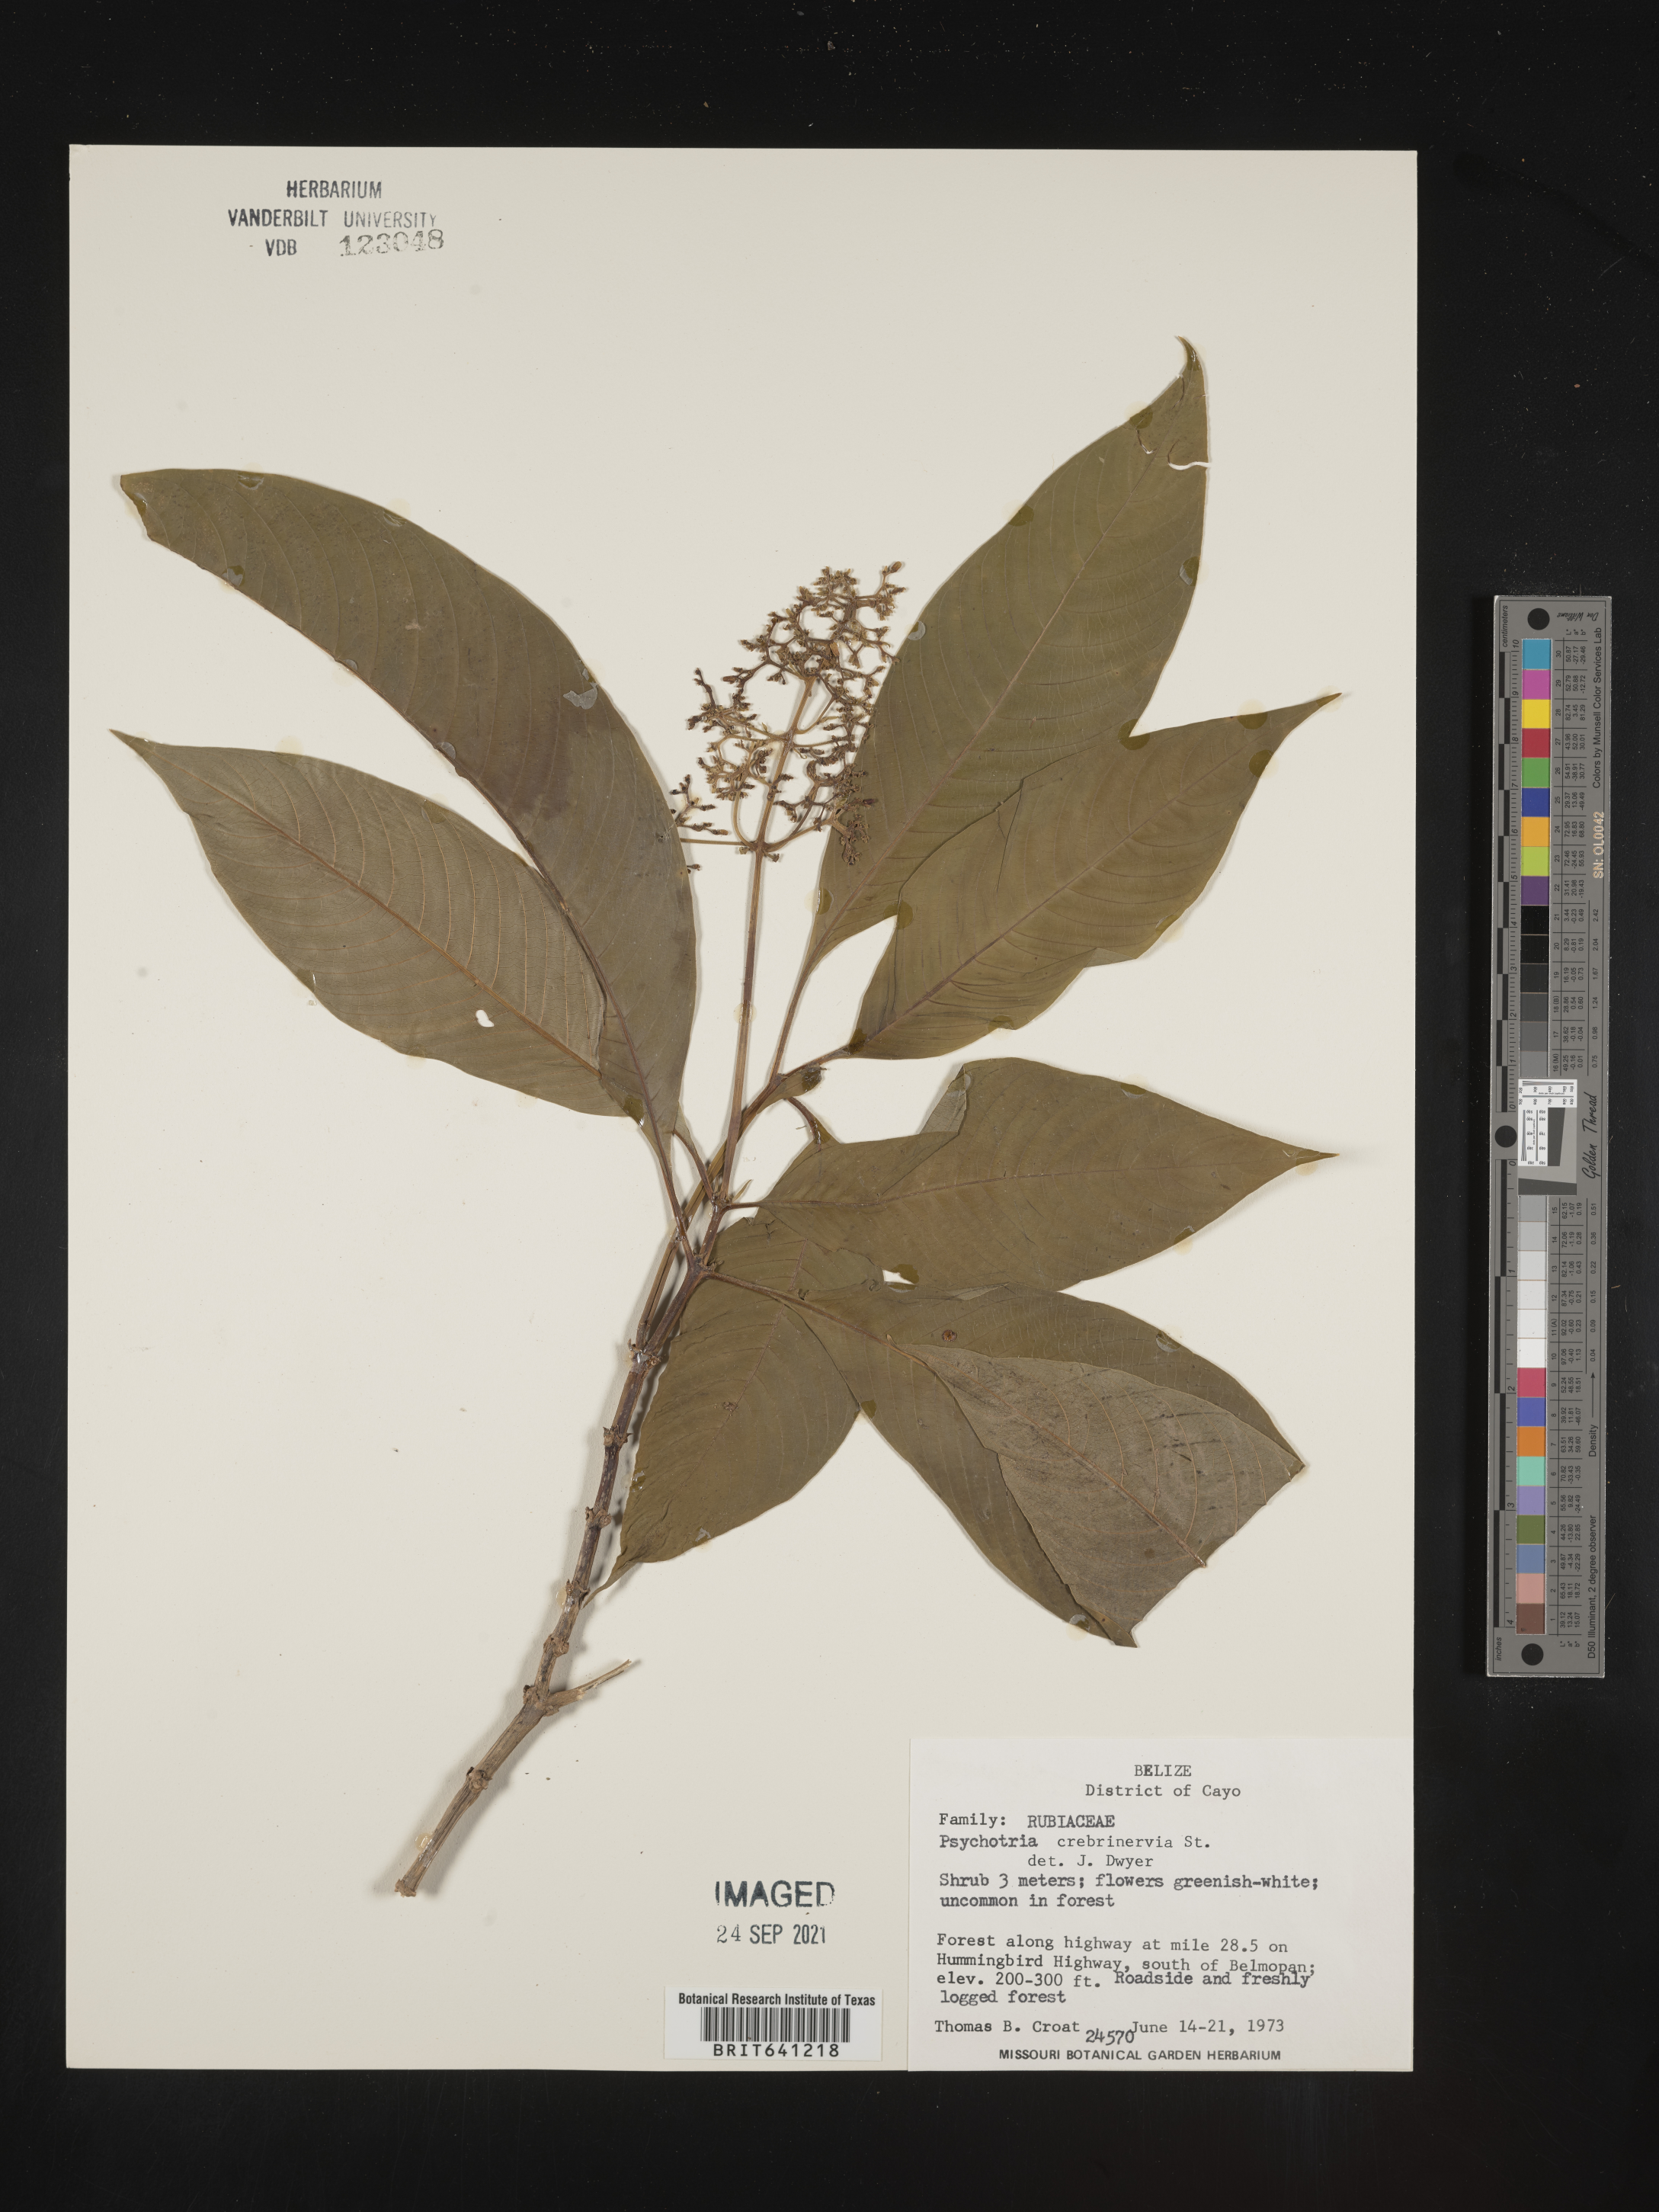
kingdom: Plantae
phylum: Tracheophyta
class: Magnoliopsida
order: Gentianales
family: Rubiaceae
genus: Psychotria
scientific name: Psychotria
